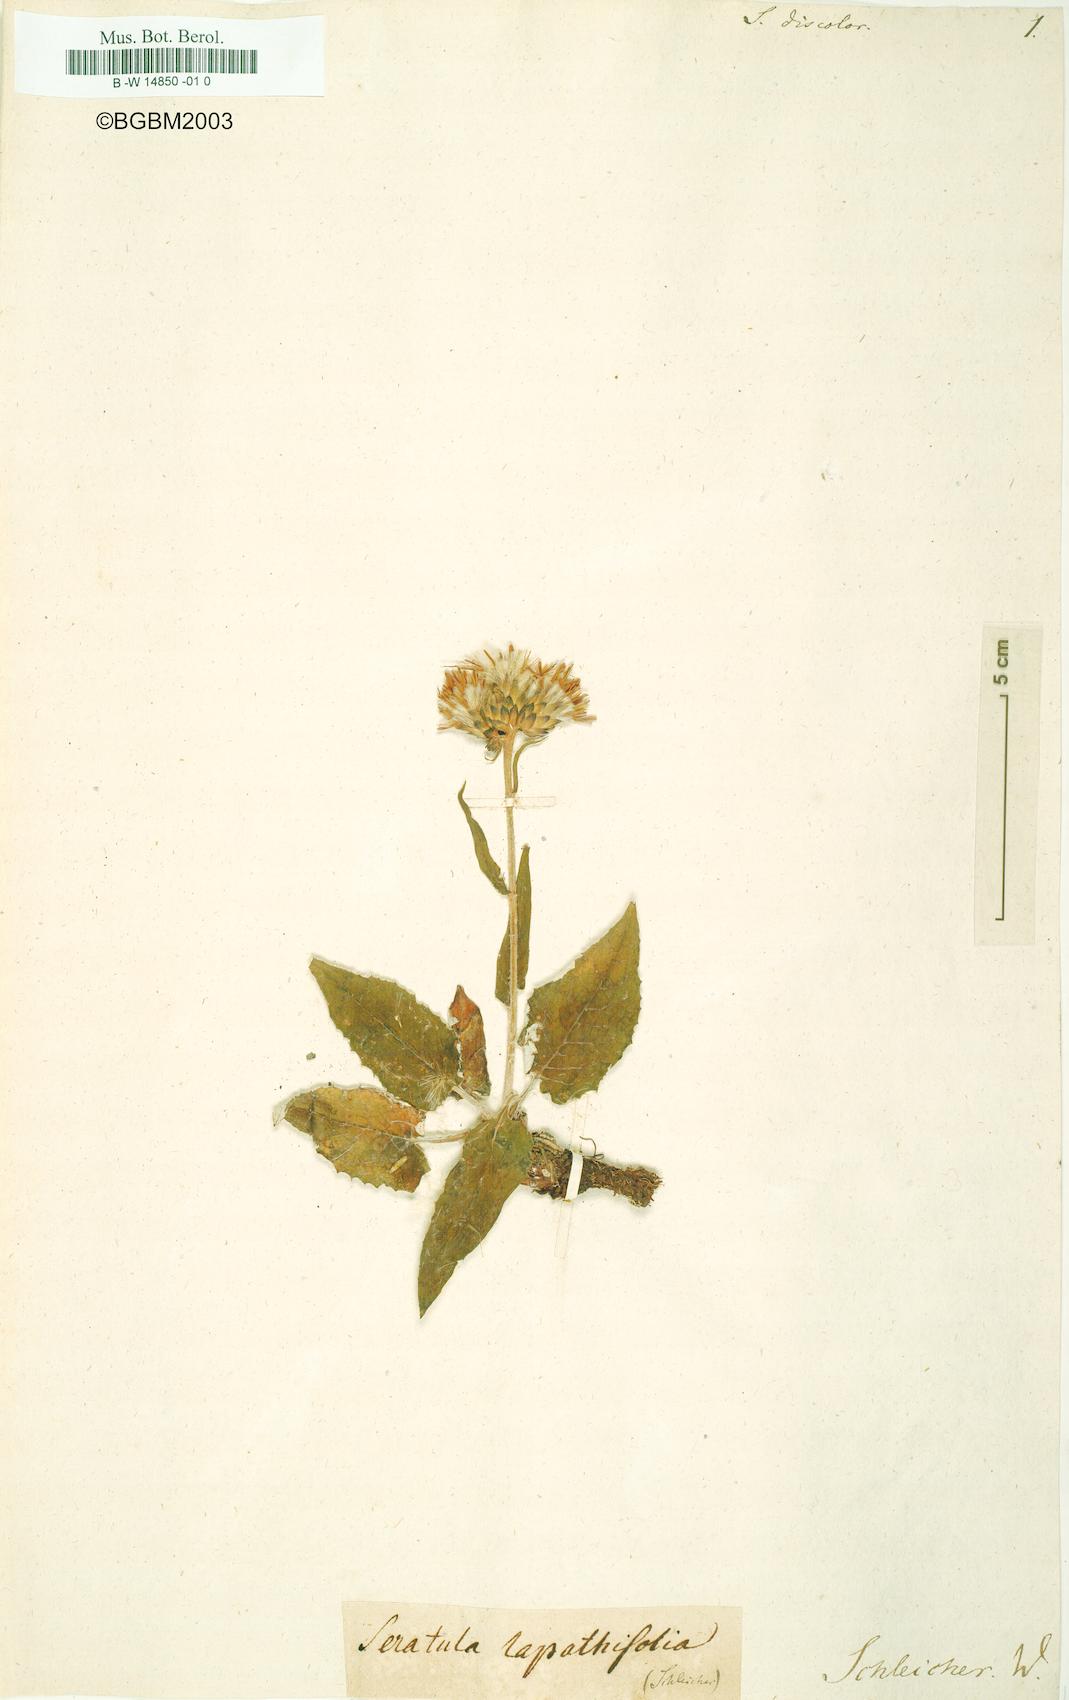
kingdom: Plantae
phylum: Tracheophyta
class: Magnoliopsida
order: Asterales
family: Asteraceae
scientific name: Asteraceae
